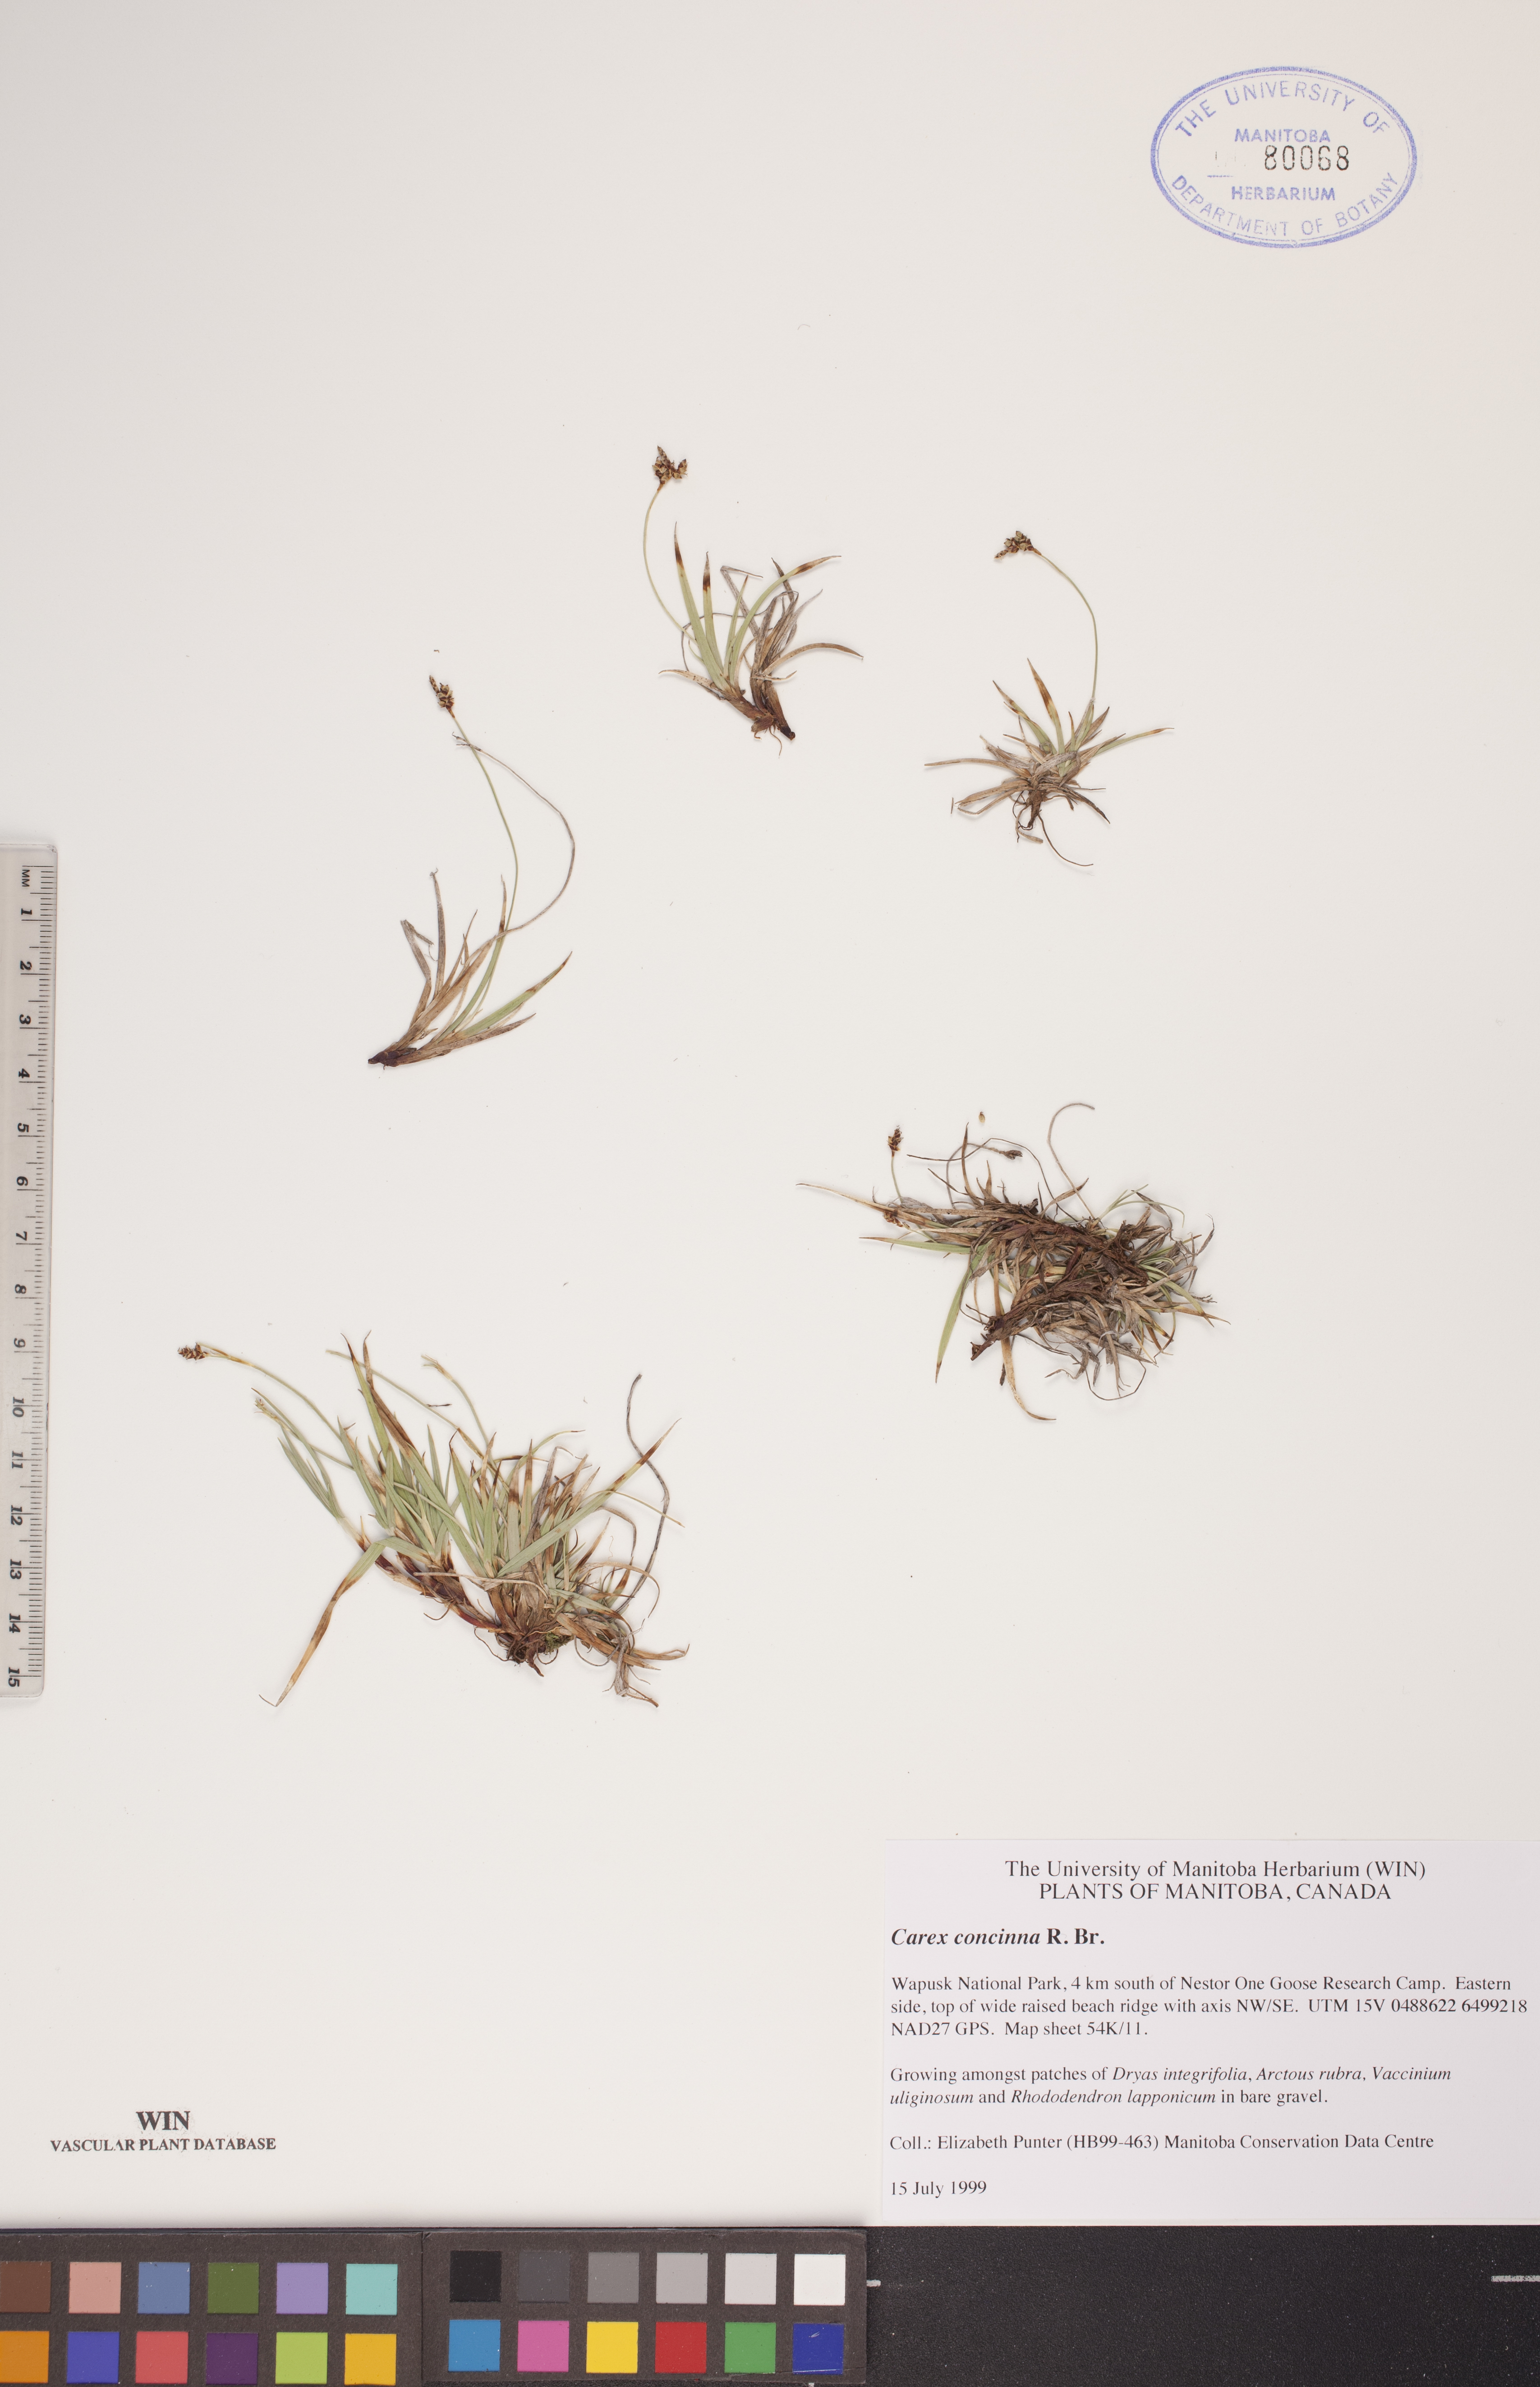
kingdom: Plantae
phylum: Tracheophyta
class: Liliopsida
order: Poales
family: Cyperaceae
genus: Carex
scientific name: Carex concinna
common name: Beautiful sedge
